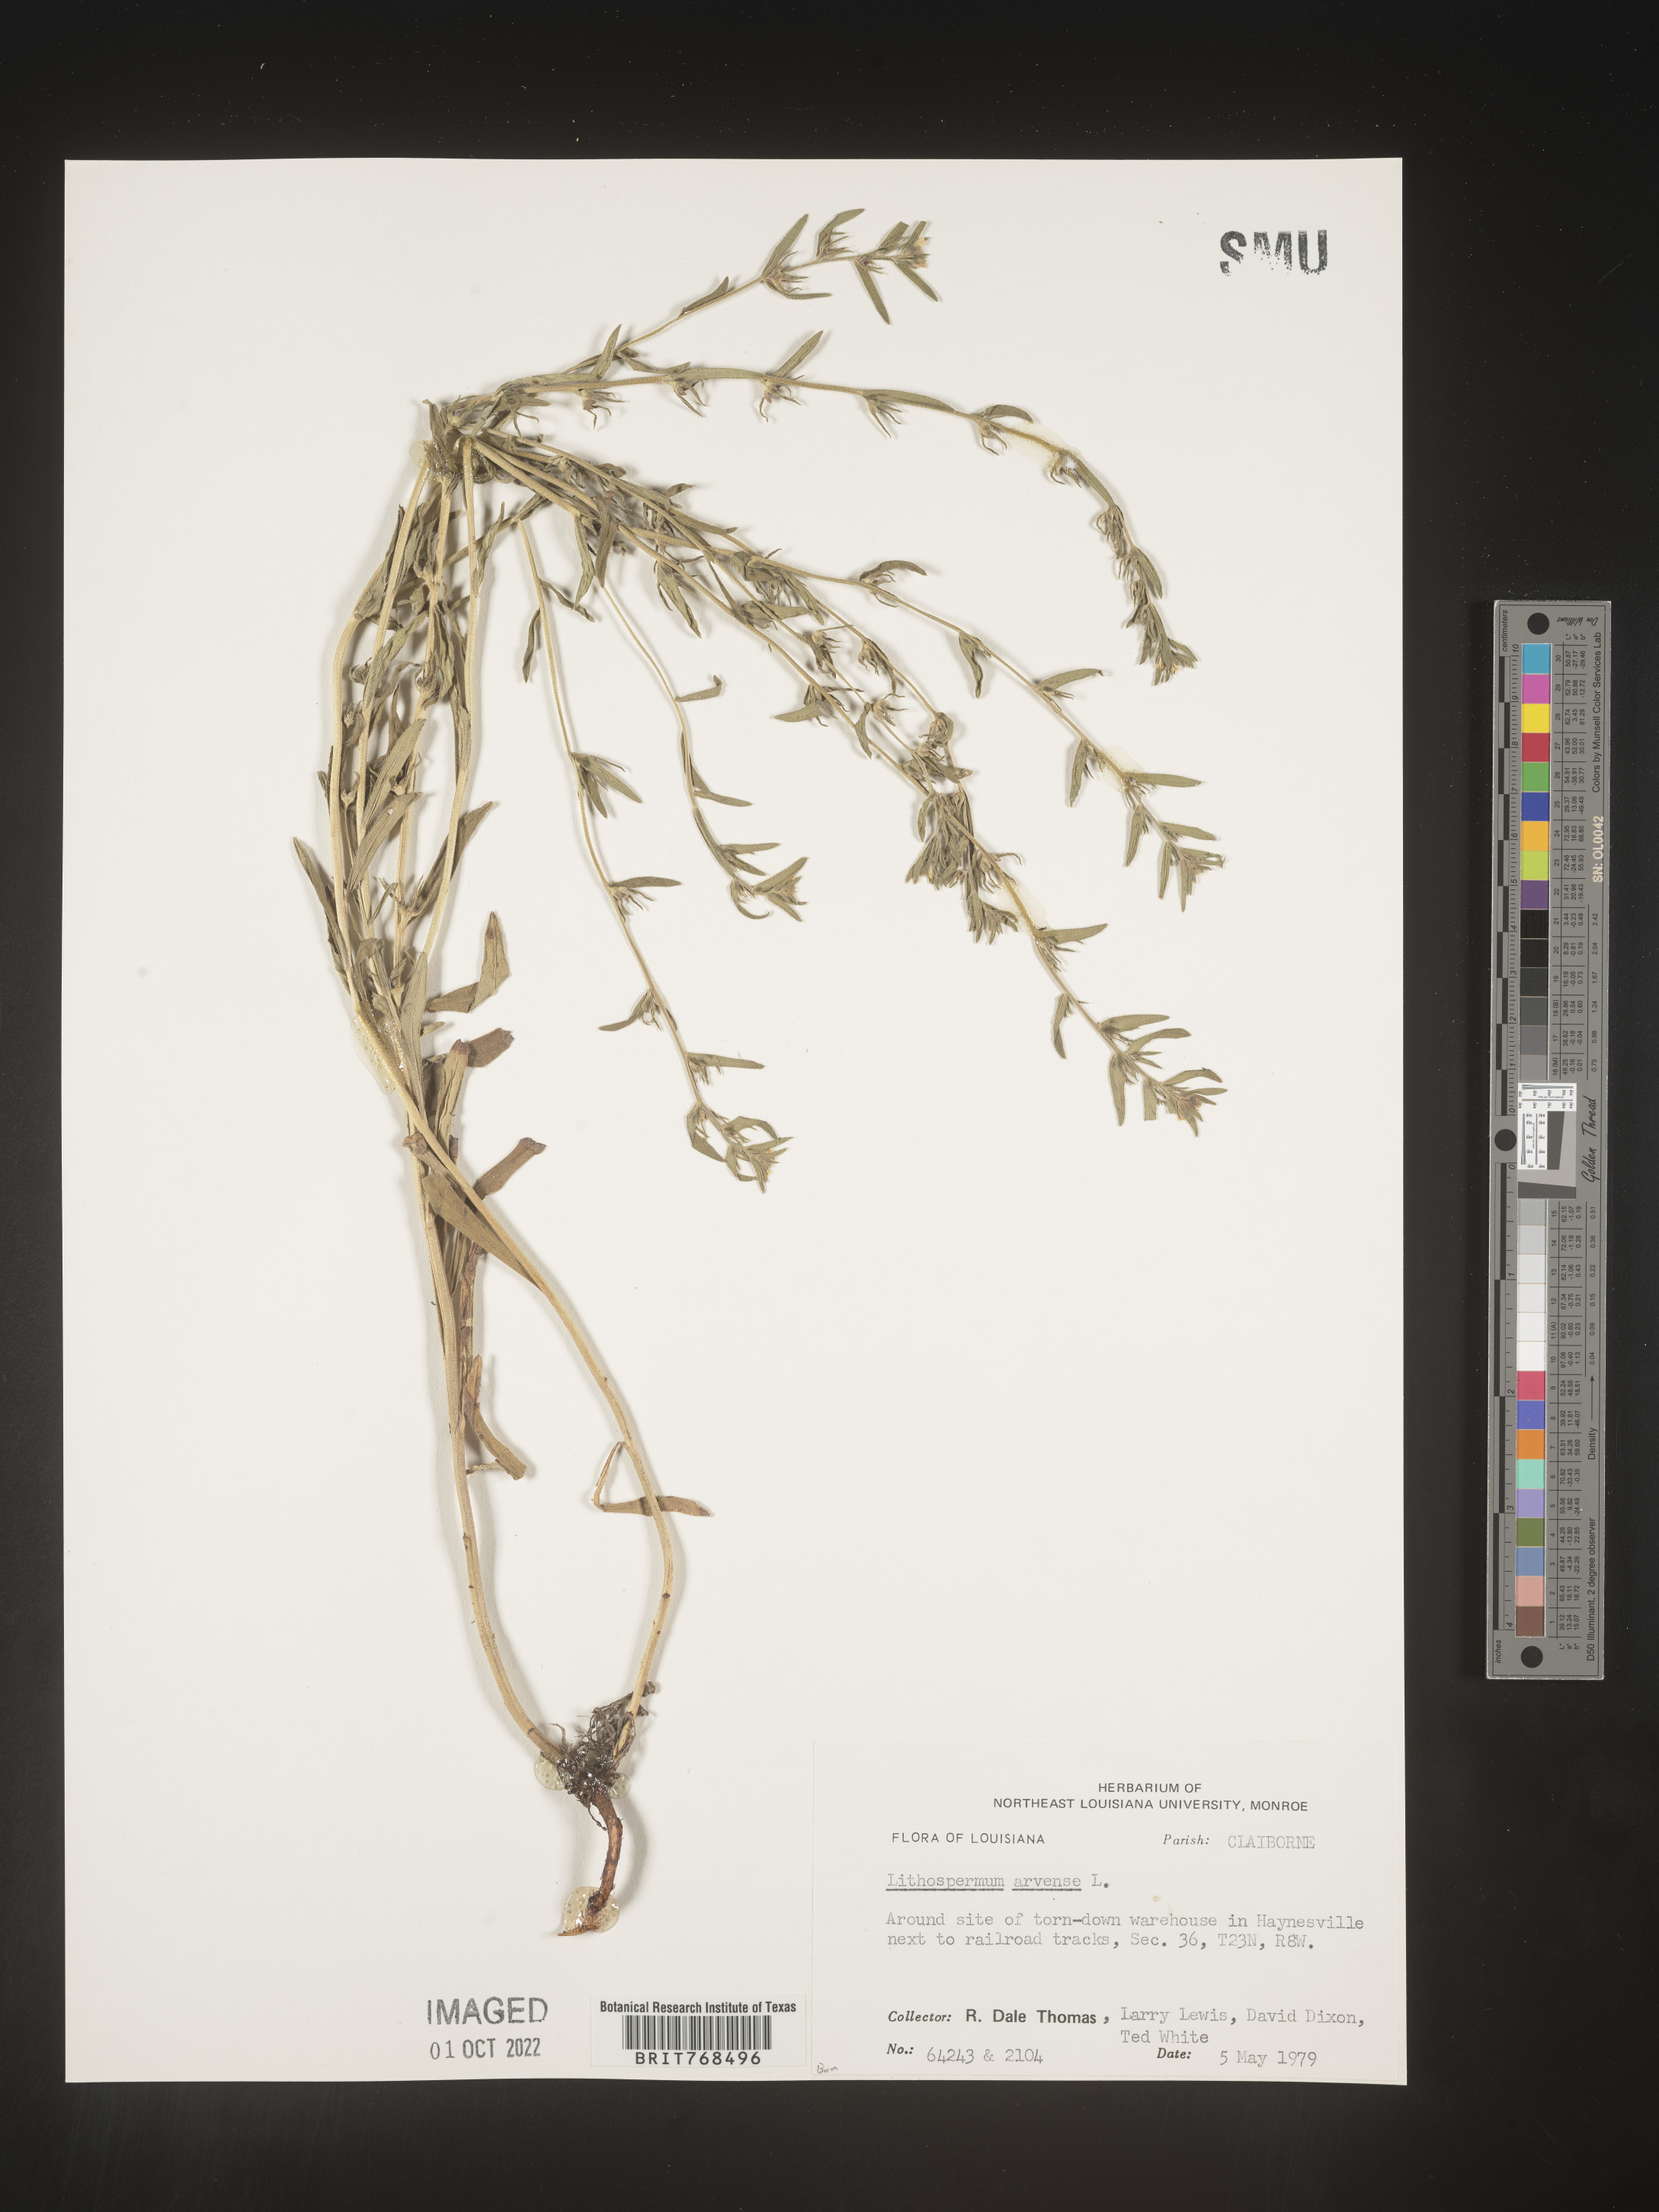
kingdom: Plantae
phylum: Tracheophyta
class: Magnoliopsida
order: Boraginales
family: Boraginaceae
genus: Lithospermum
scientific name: Lithospermum
